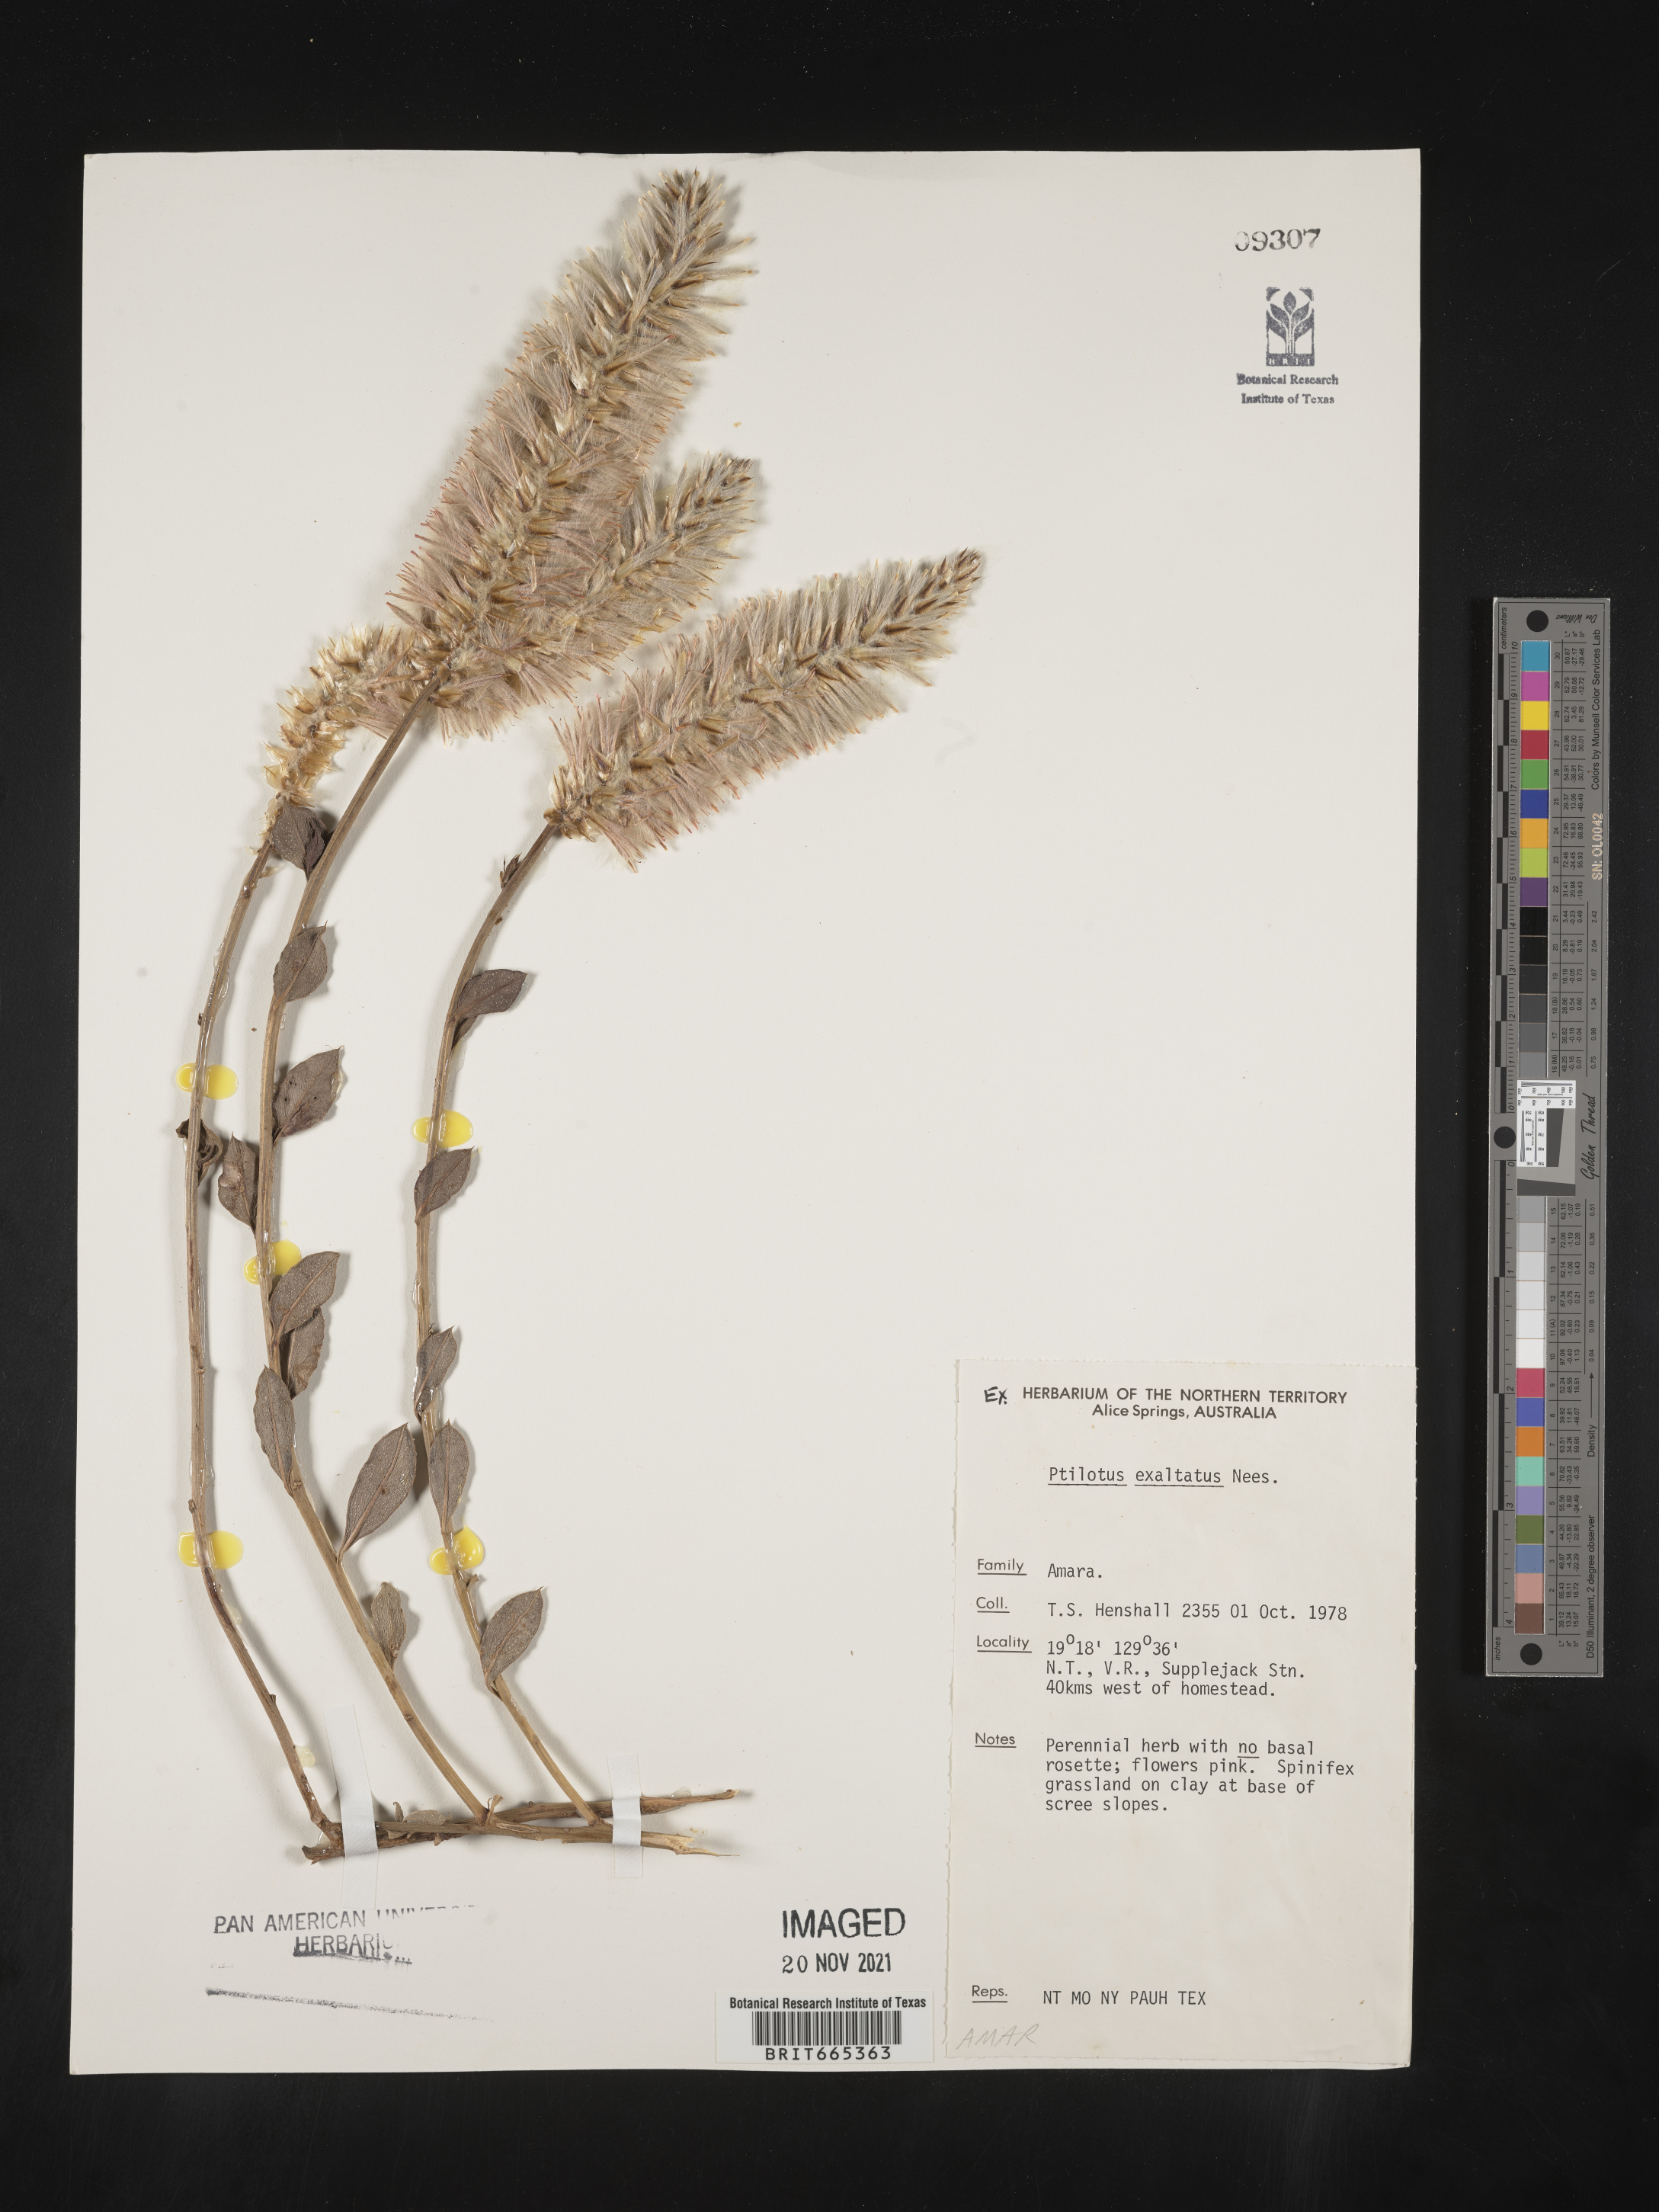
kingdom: Plantae
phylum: Tracheophyta
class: Magnoliopsida
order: Caryophyllales
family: Amaranthaceae
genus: Ptilotus
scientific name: Ptilotus
